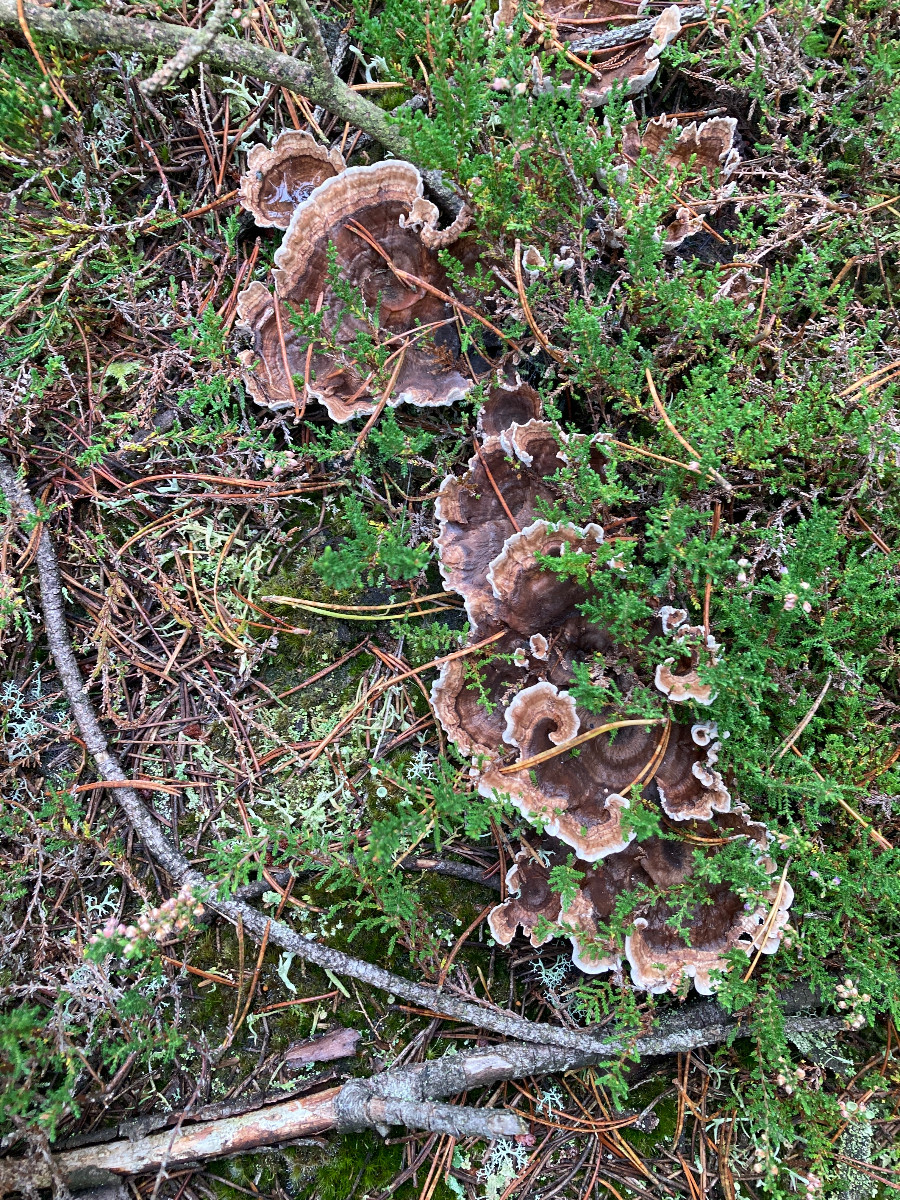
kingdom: Fungi
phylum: Basidiomycota
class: Agaricomycetes
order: Thelephorales
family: Thelephoraceae
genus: Phellodon
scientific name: Phellodon tomentosus
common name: tragtformet duftpigsvamp
